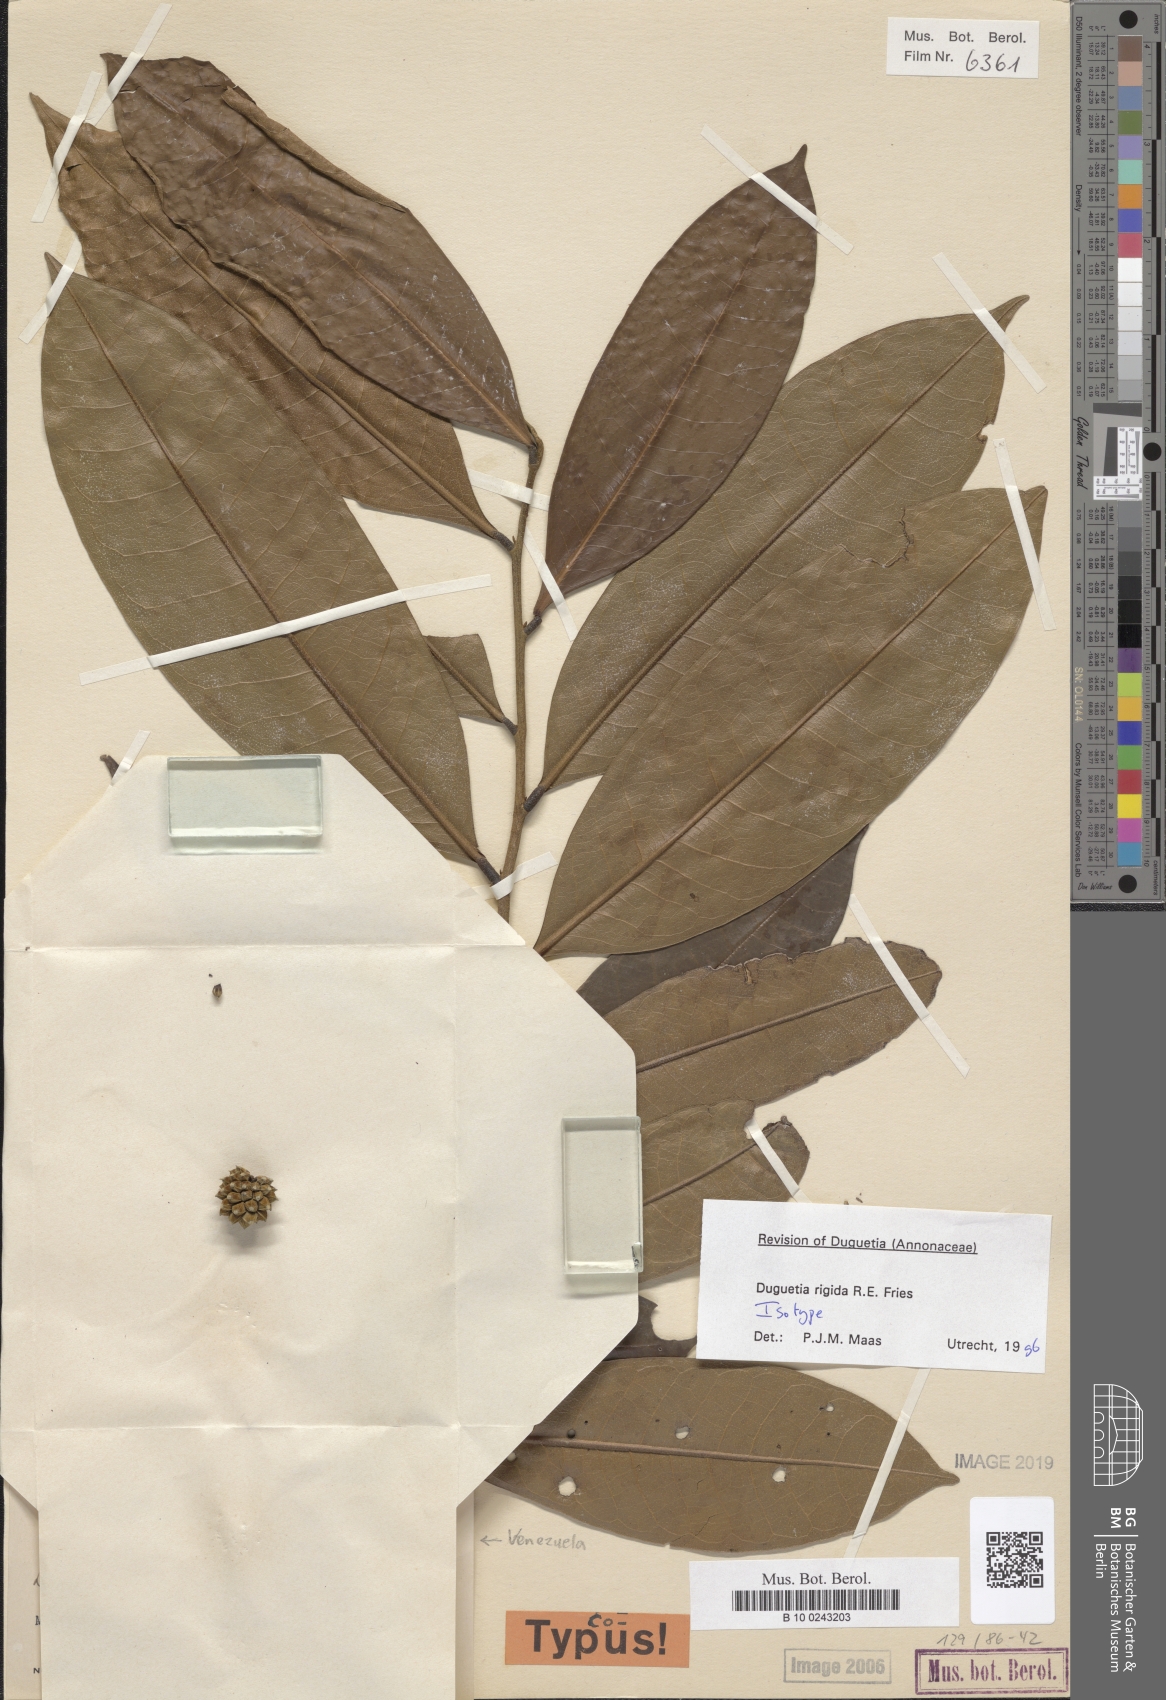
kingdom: Plantae
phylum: Tracheophyta
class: Magnoliopsida
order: Magnoliales
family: Annonaceae
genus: Duguetia
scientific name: Duguetia rigida
